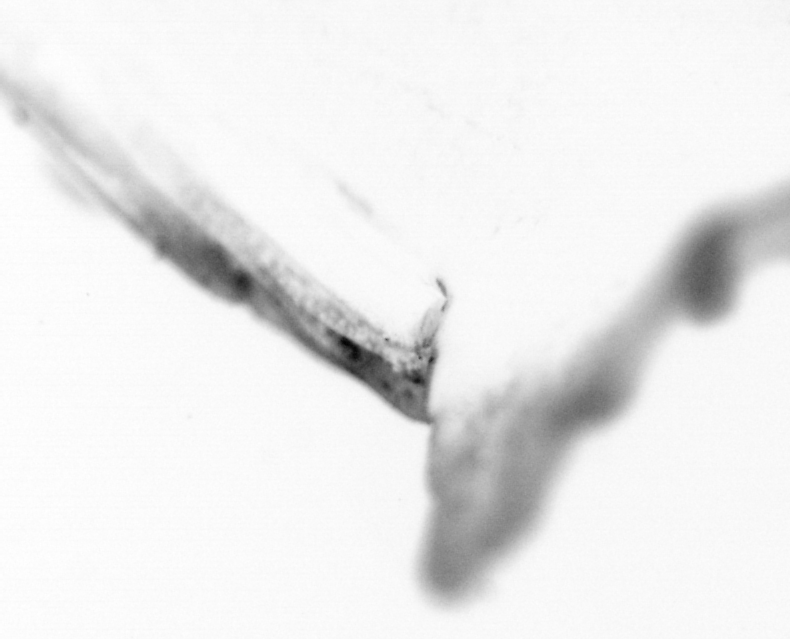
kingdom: Animalia
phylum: Chordata
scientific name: Chordata
